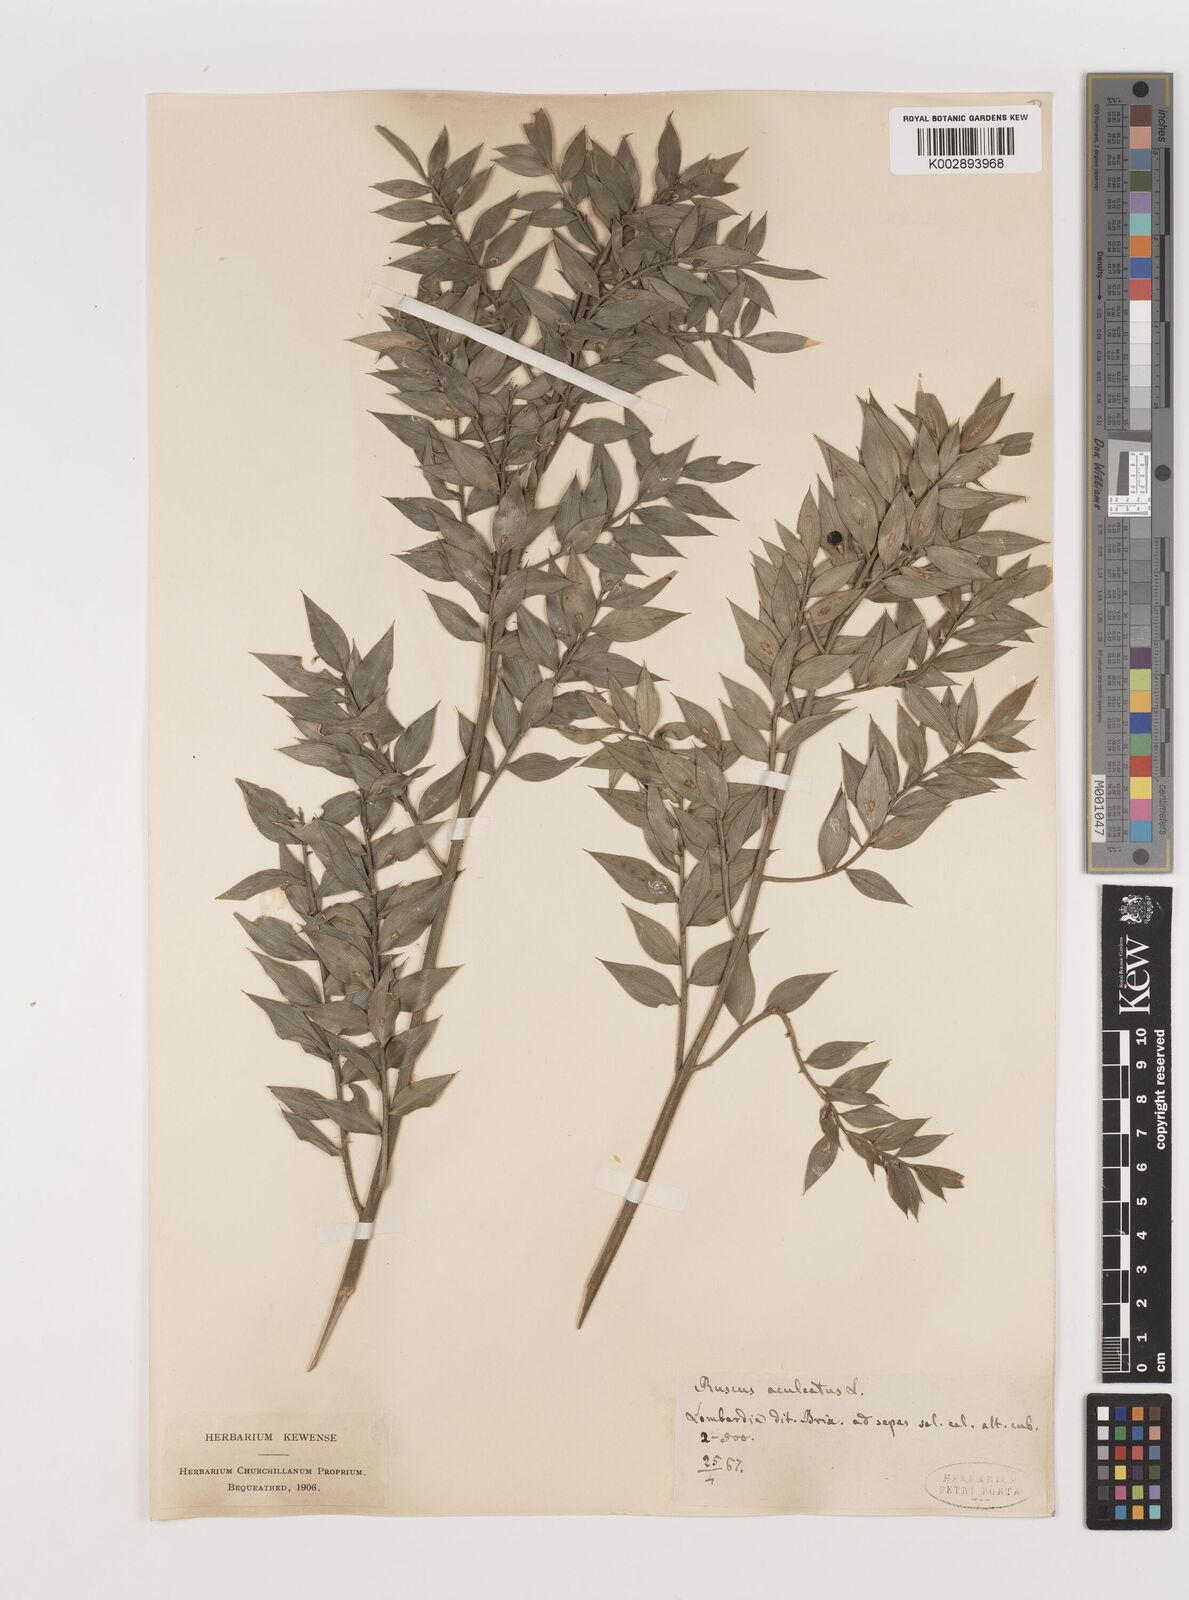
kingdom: Plantae
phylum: Tracheophyta
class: Liliopsida
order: Asparagales
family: Asparagaceae
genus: Ruscus
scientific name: Ruscus
